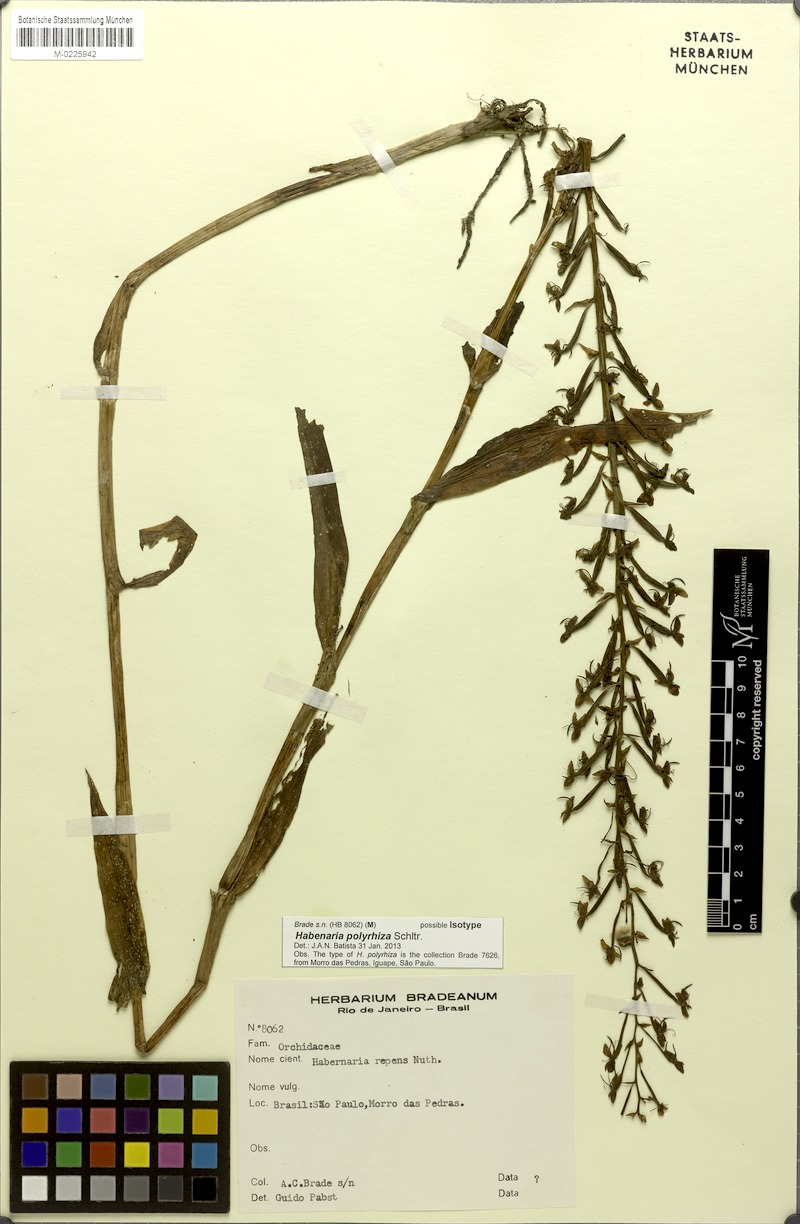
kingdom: Plantae
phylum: Tracheophyta
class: Liliopsida
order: Asparagales
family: Orchidaceae
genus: Habenaria
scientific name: Habenaria polyrhiza
